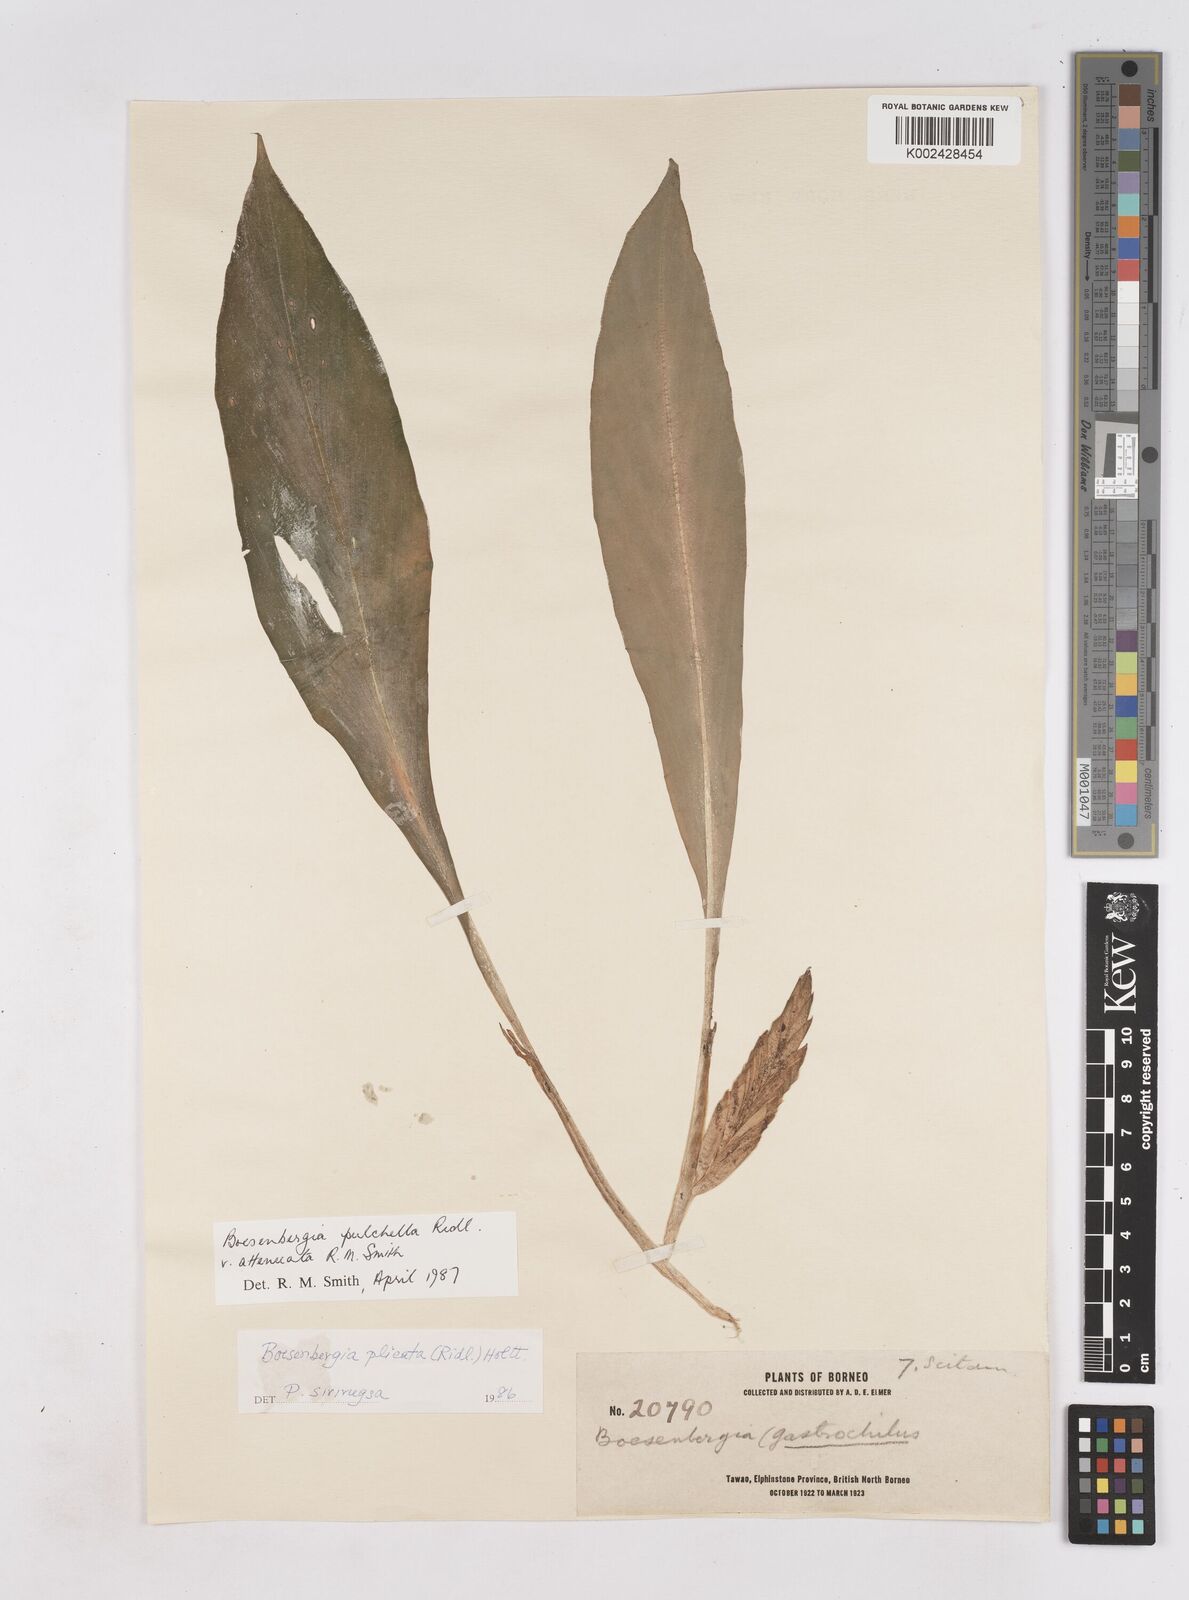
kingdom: Plantae
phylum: Tracheophyta
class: Liliopsida
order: Zingiberales
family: Zingiberaceae
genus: Boesenbergia
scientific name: Boesenbergia pulchella
